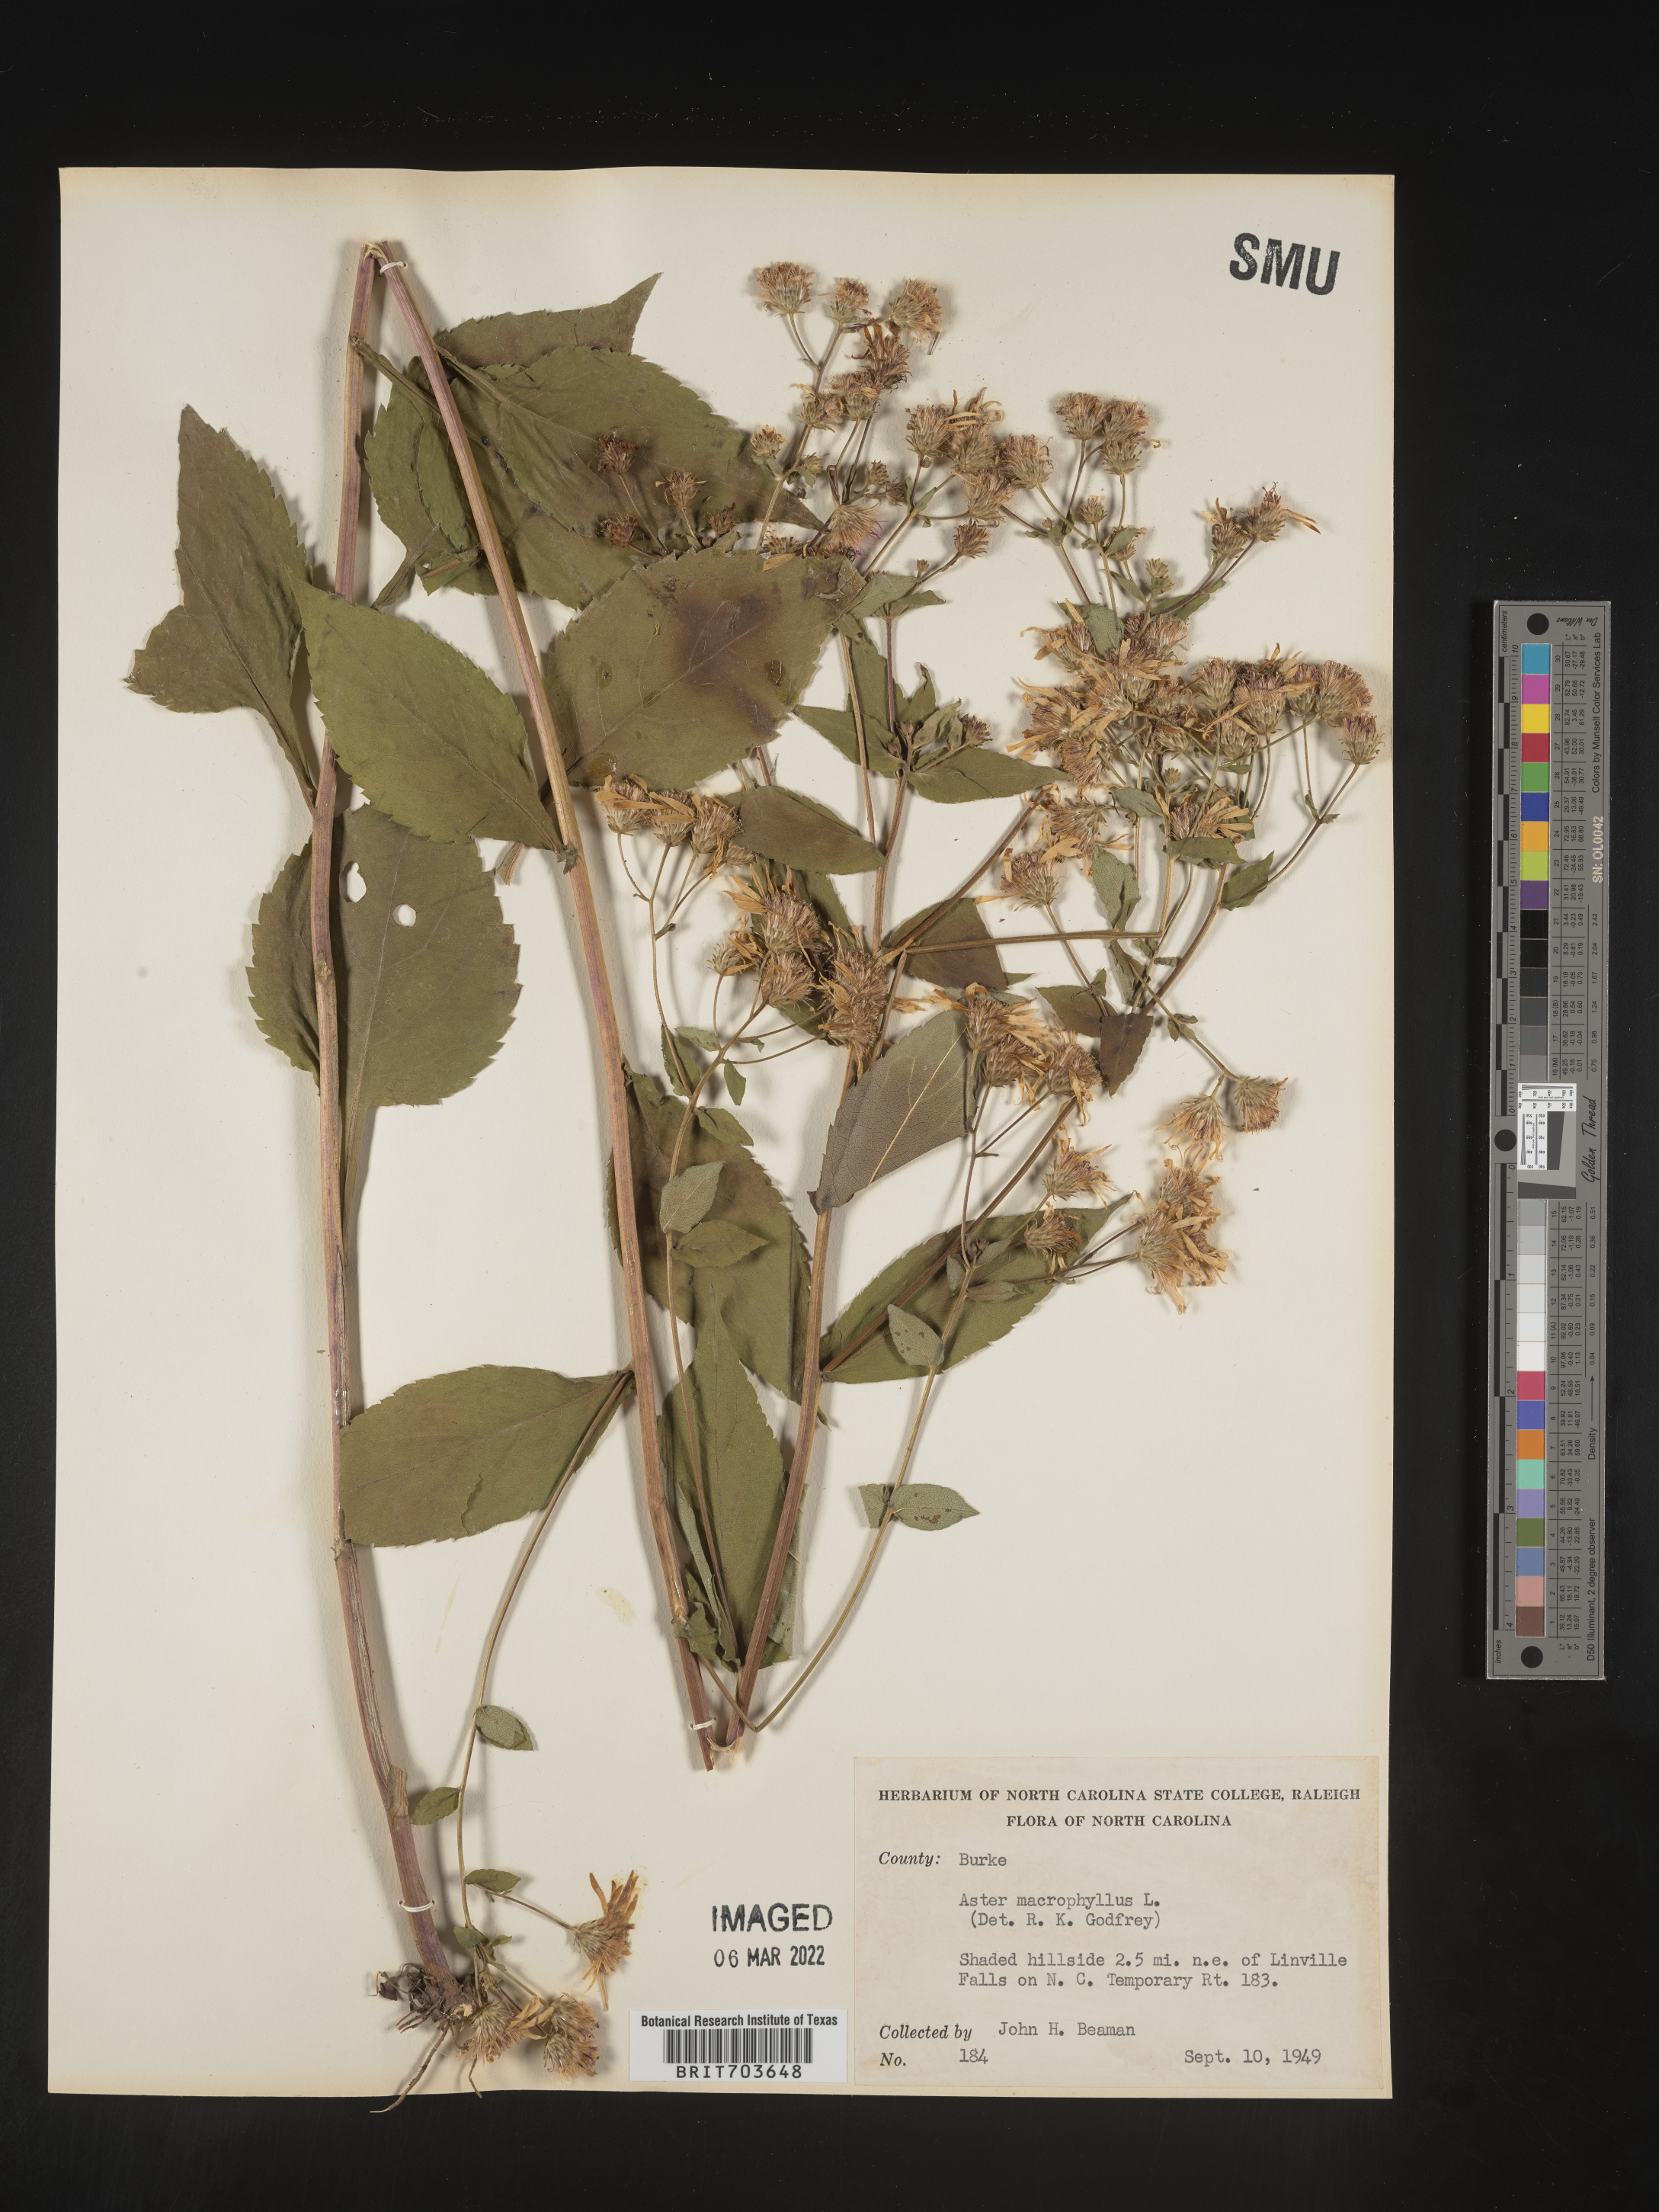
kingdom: Plantae
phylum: Tracheophyta
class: Magnoliopsida
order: Asterales
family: Asteraceae
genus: Eurybia
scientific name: Eurybia macrophylla
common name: Big-leaved aster
